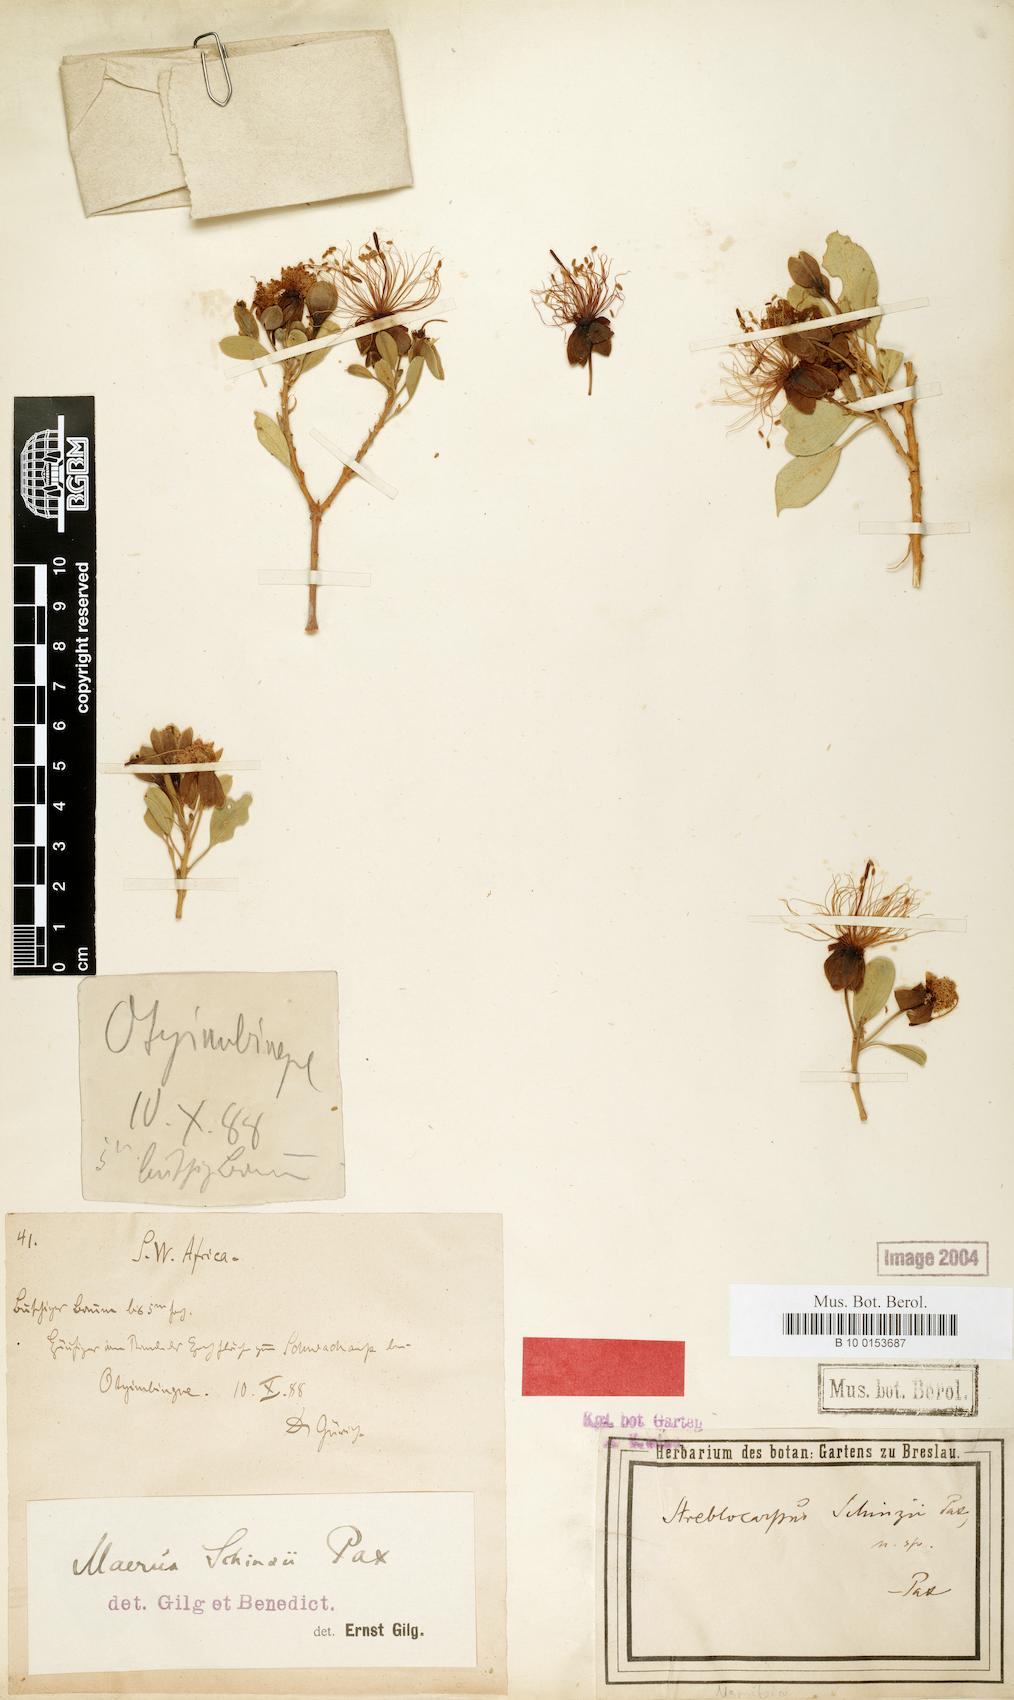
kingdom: Plantae
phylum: Tracheophyta
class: Magnoliopsida
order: Brassicales
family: Capparaceae
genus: Maerua
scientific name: Maerua schinzii
